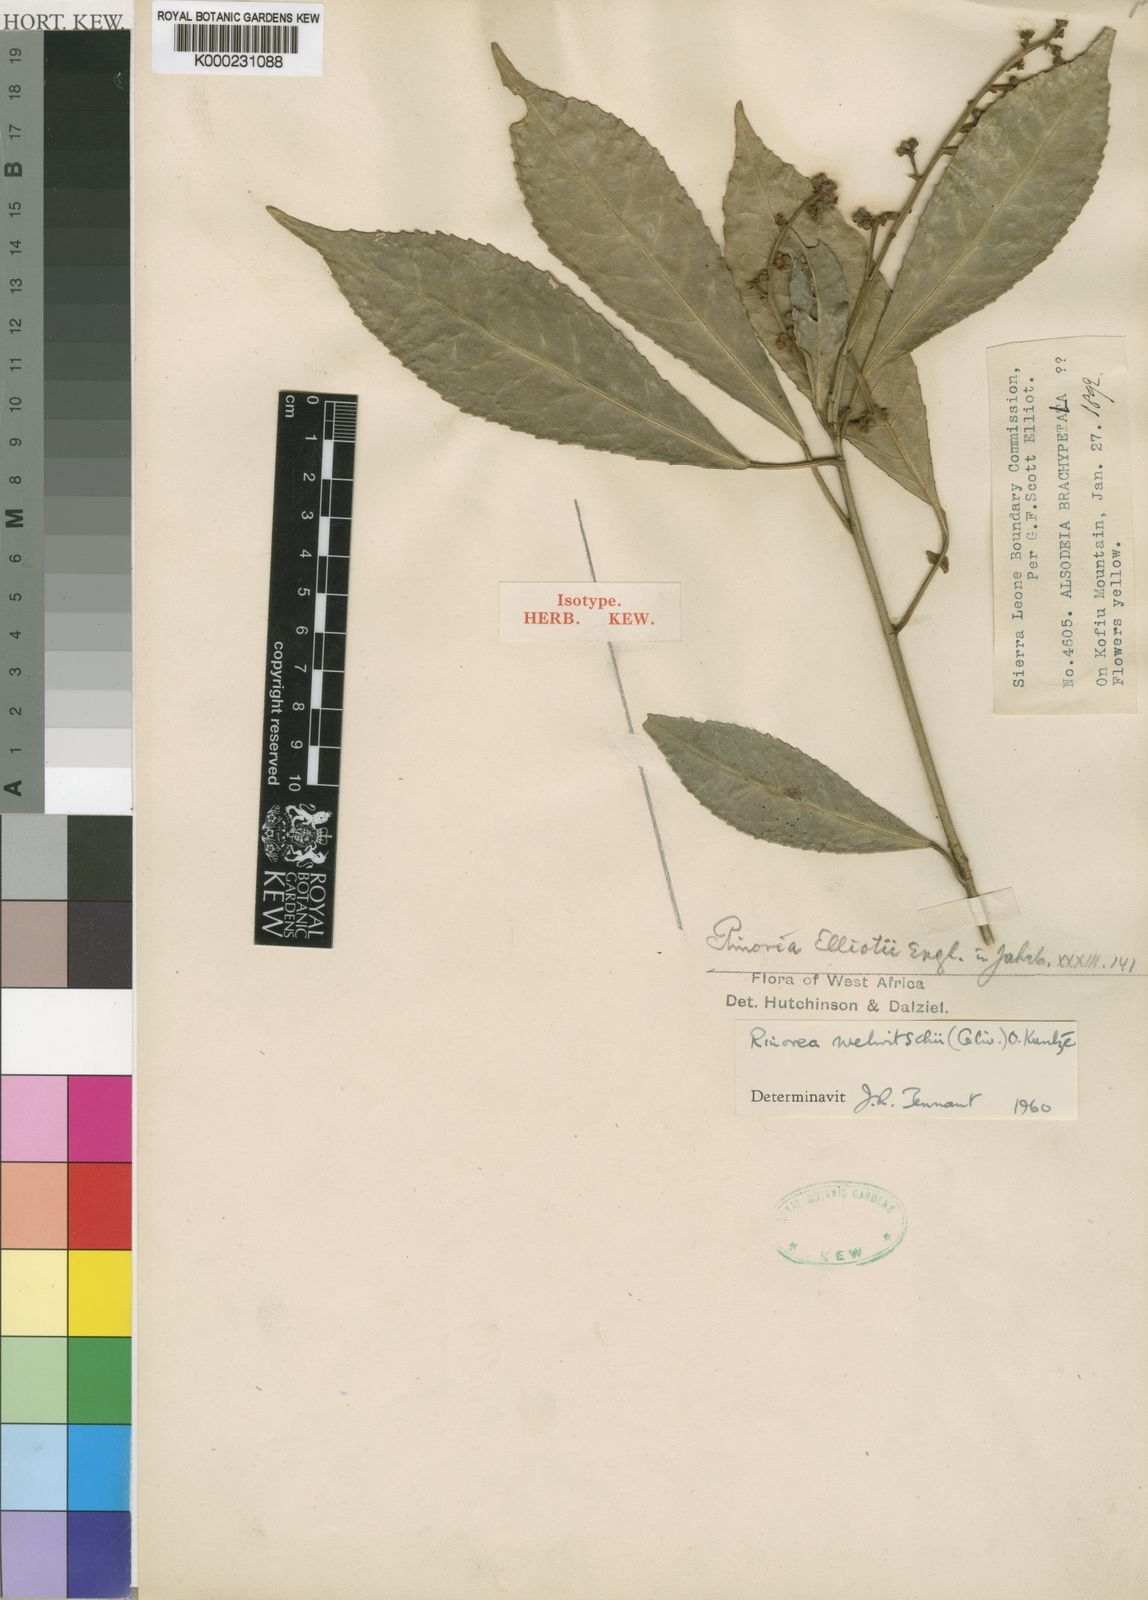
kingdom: Plantae
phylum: Tracheophyta
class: Magnoliopsida
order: Malpighiales
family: Violaceae
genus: Rinorea
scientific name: Rinorea welwitschii
